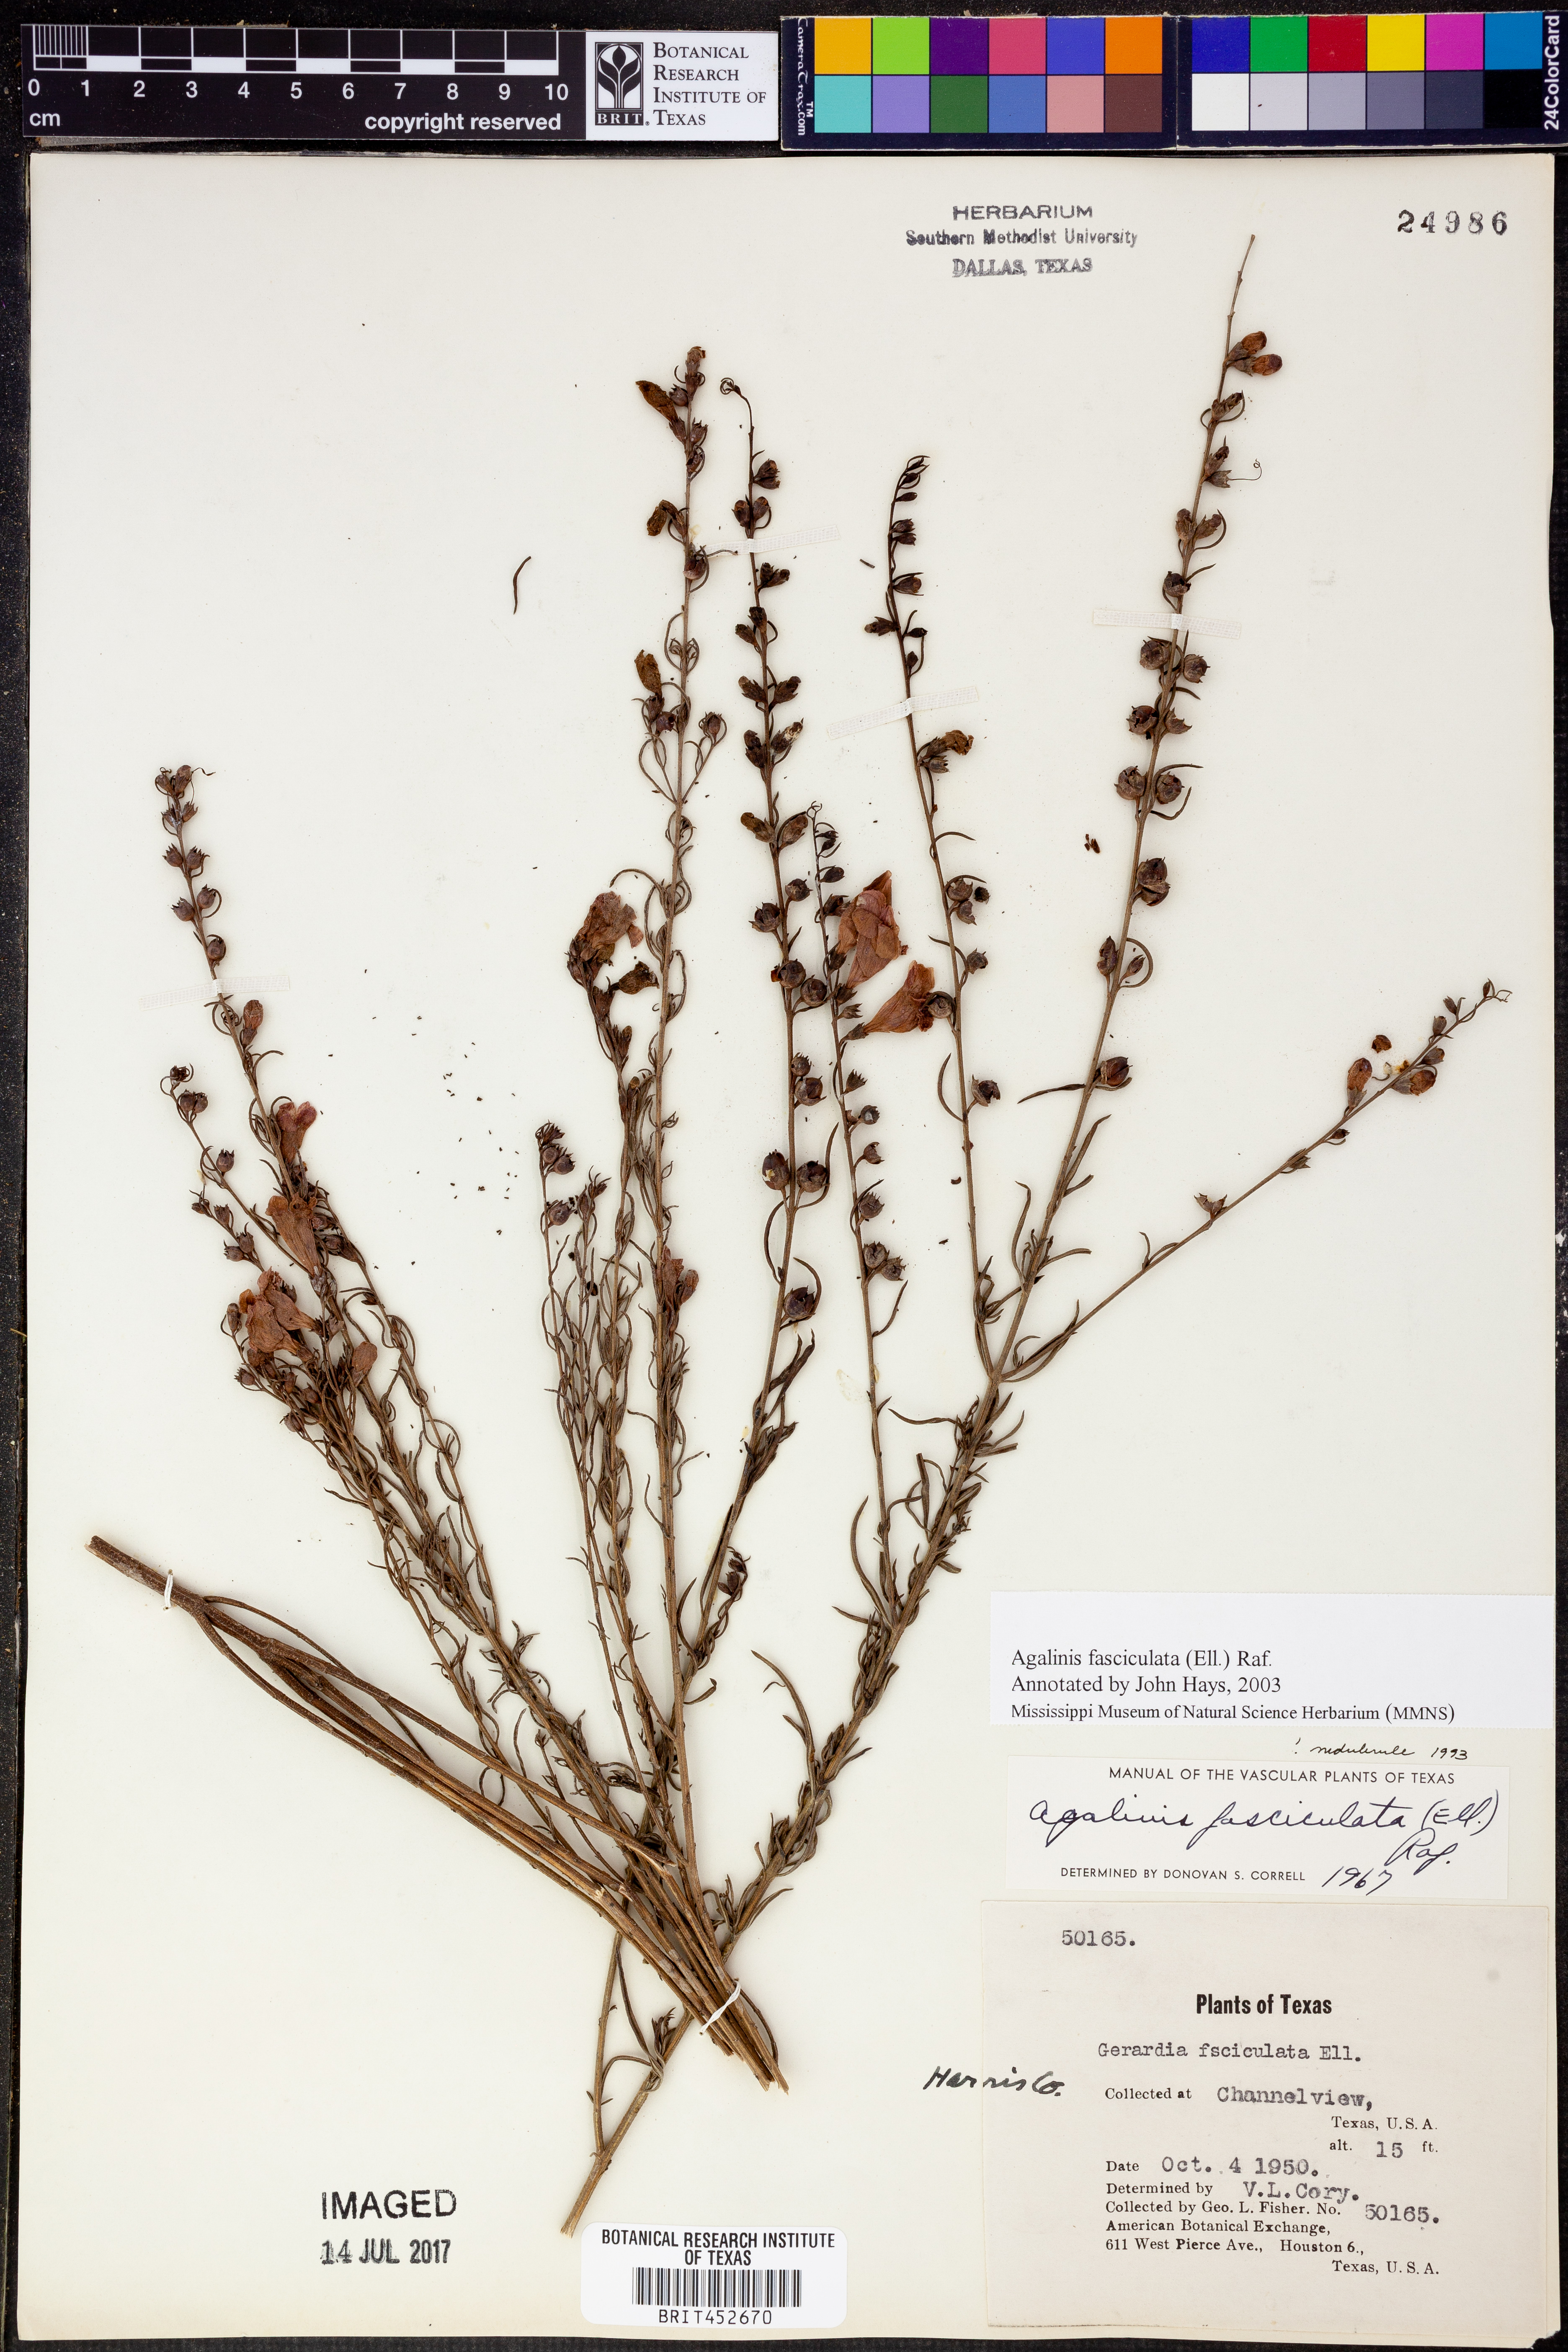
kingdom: Plantae
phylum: Tracheophyta
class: Magnoliopsida
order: Lamiales
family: Orobanchaceae
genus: Agalinis
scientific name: Agalinis fasciculata
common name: Beach false foxglove
